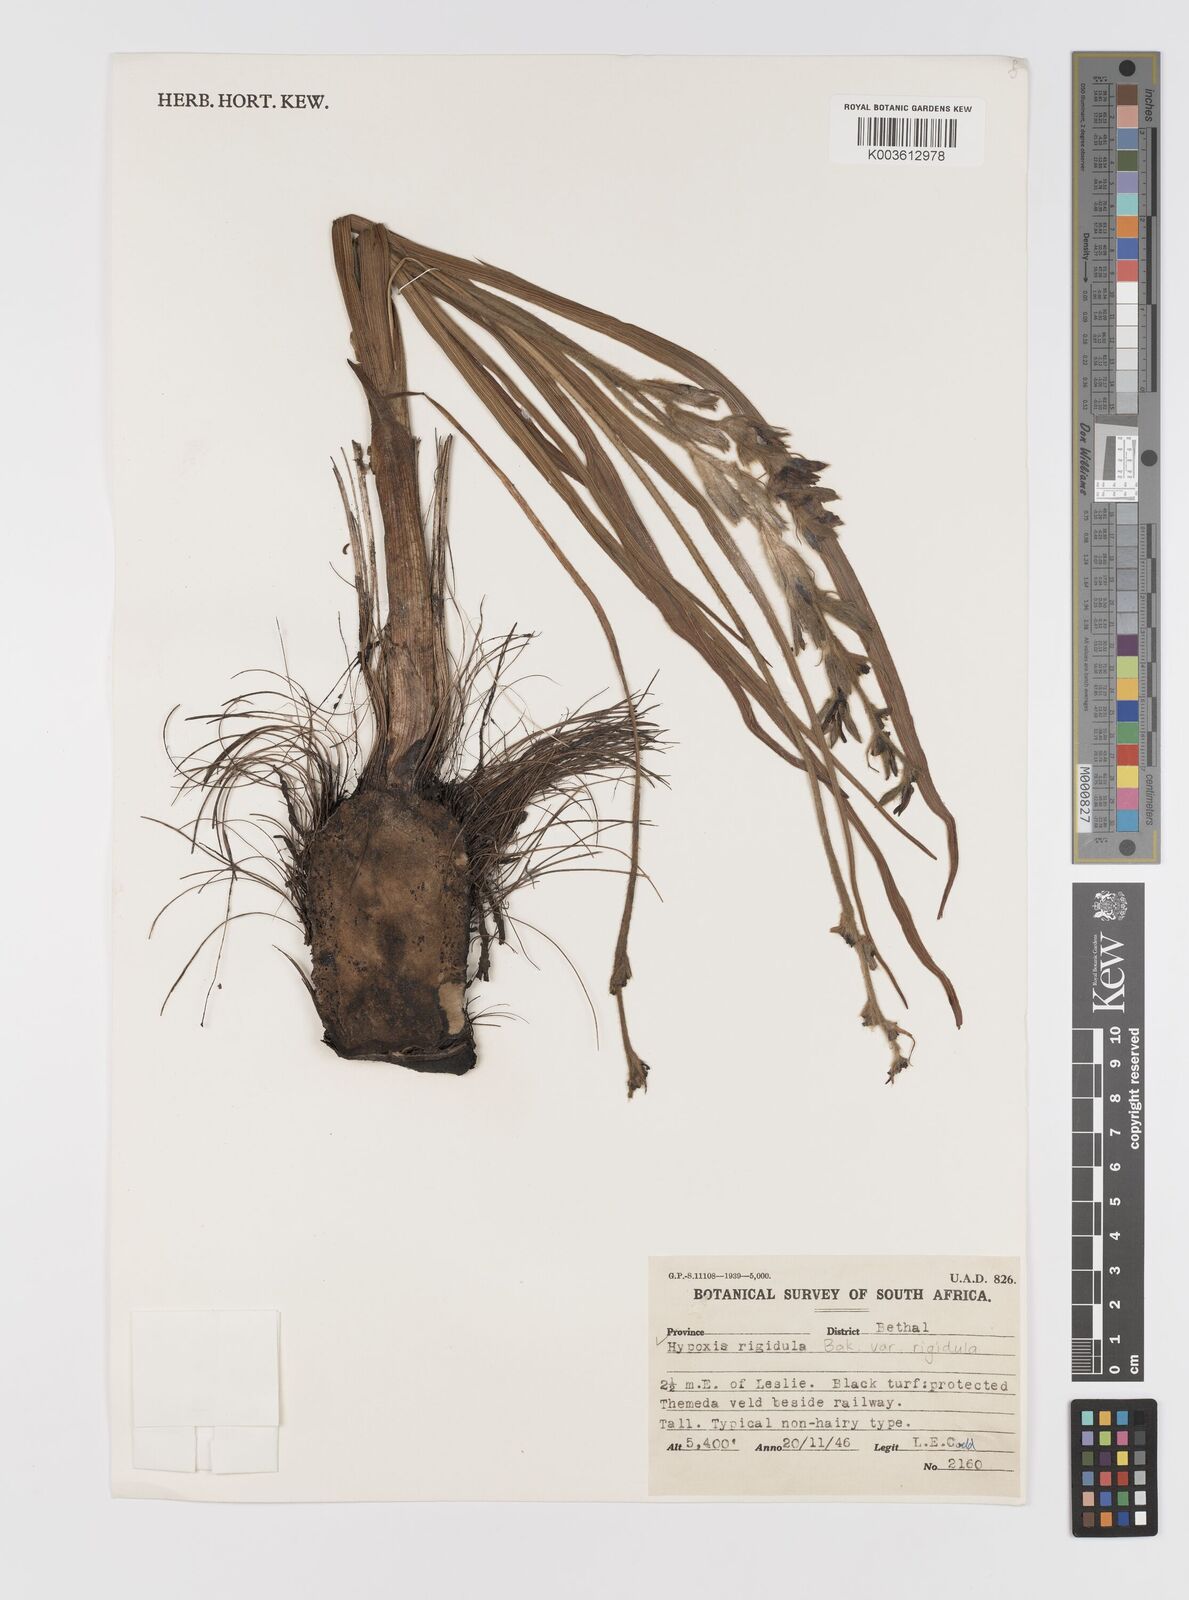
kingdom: Plantae
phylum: Tracheophyta
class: Liliopsida
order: Asparagales
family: Hypoxidaceae
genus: Hypoxis
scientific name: Hypoxis rigidula
